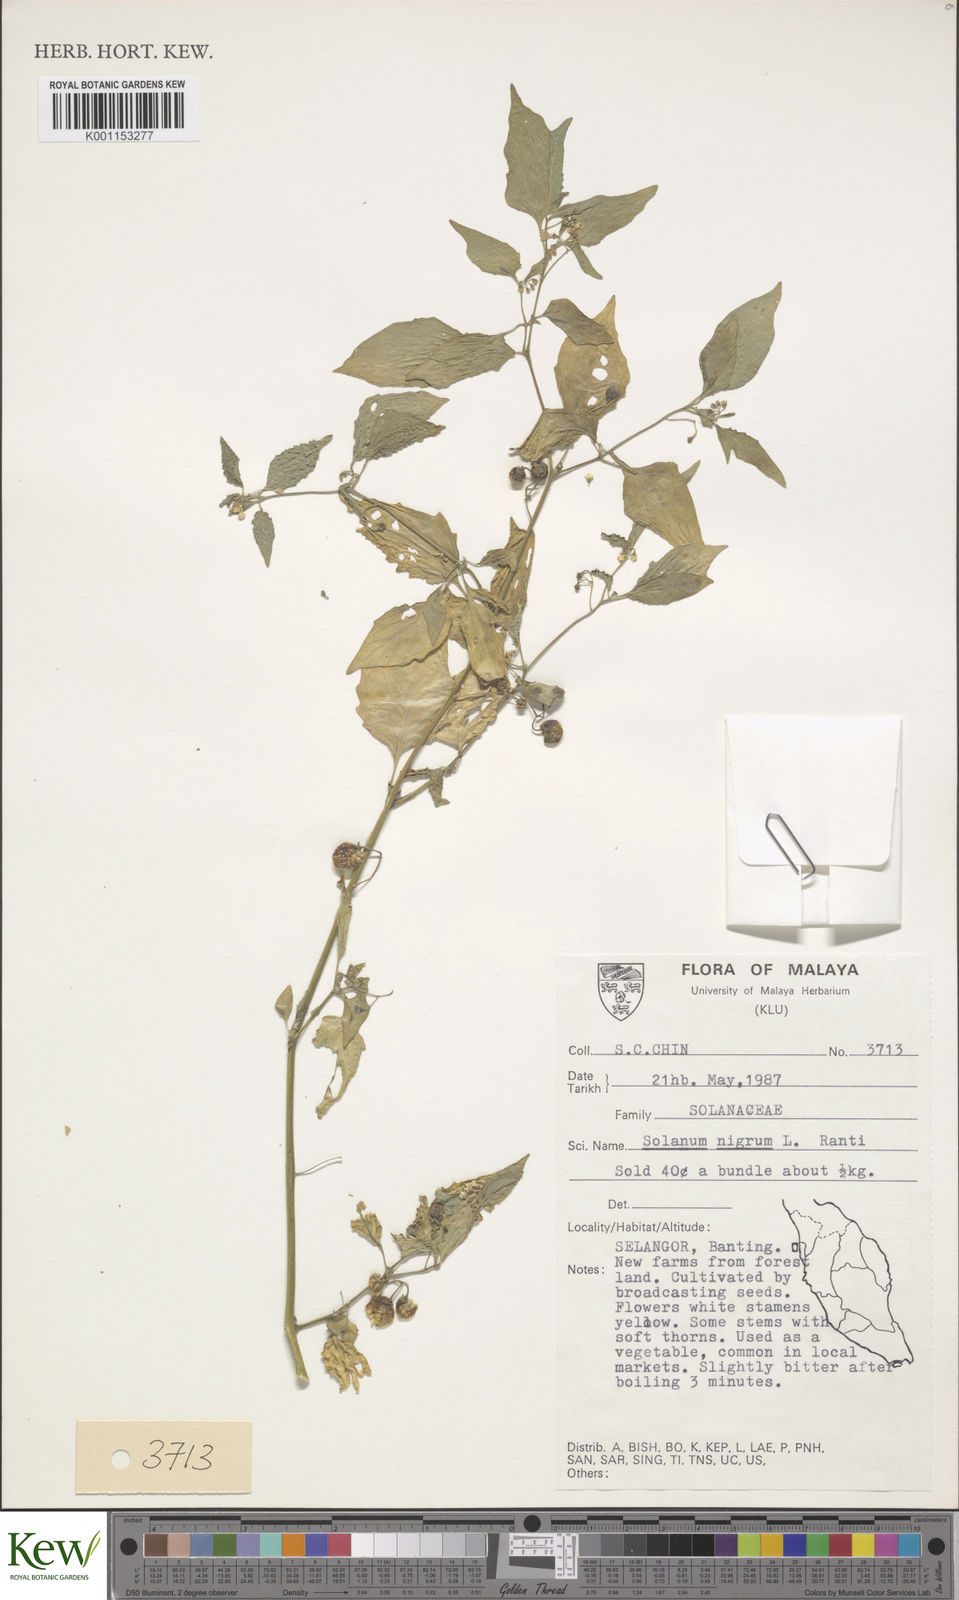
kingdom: Plantae
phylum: Tracheophyta
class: Magnoliopsida
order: Solanales
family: Solanaceae
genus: Solanum
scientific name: Solanum americanum
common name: American black nightshade
